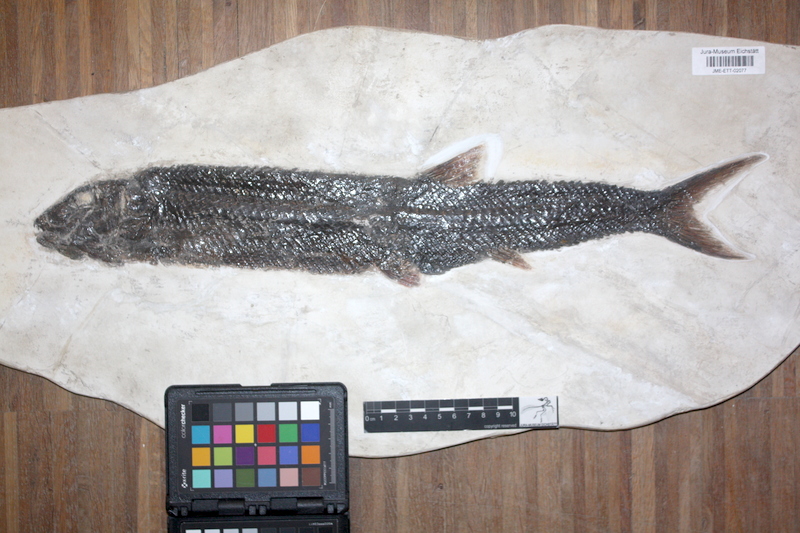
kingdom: Animalia
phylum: Chordata
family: Ophiopsiellidae
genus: Ophiopsis
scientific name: Ophiopsis muensteri
